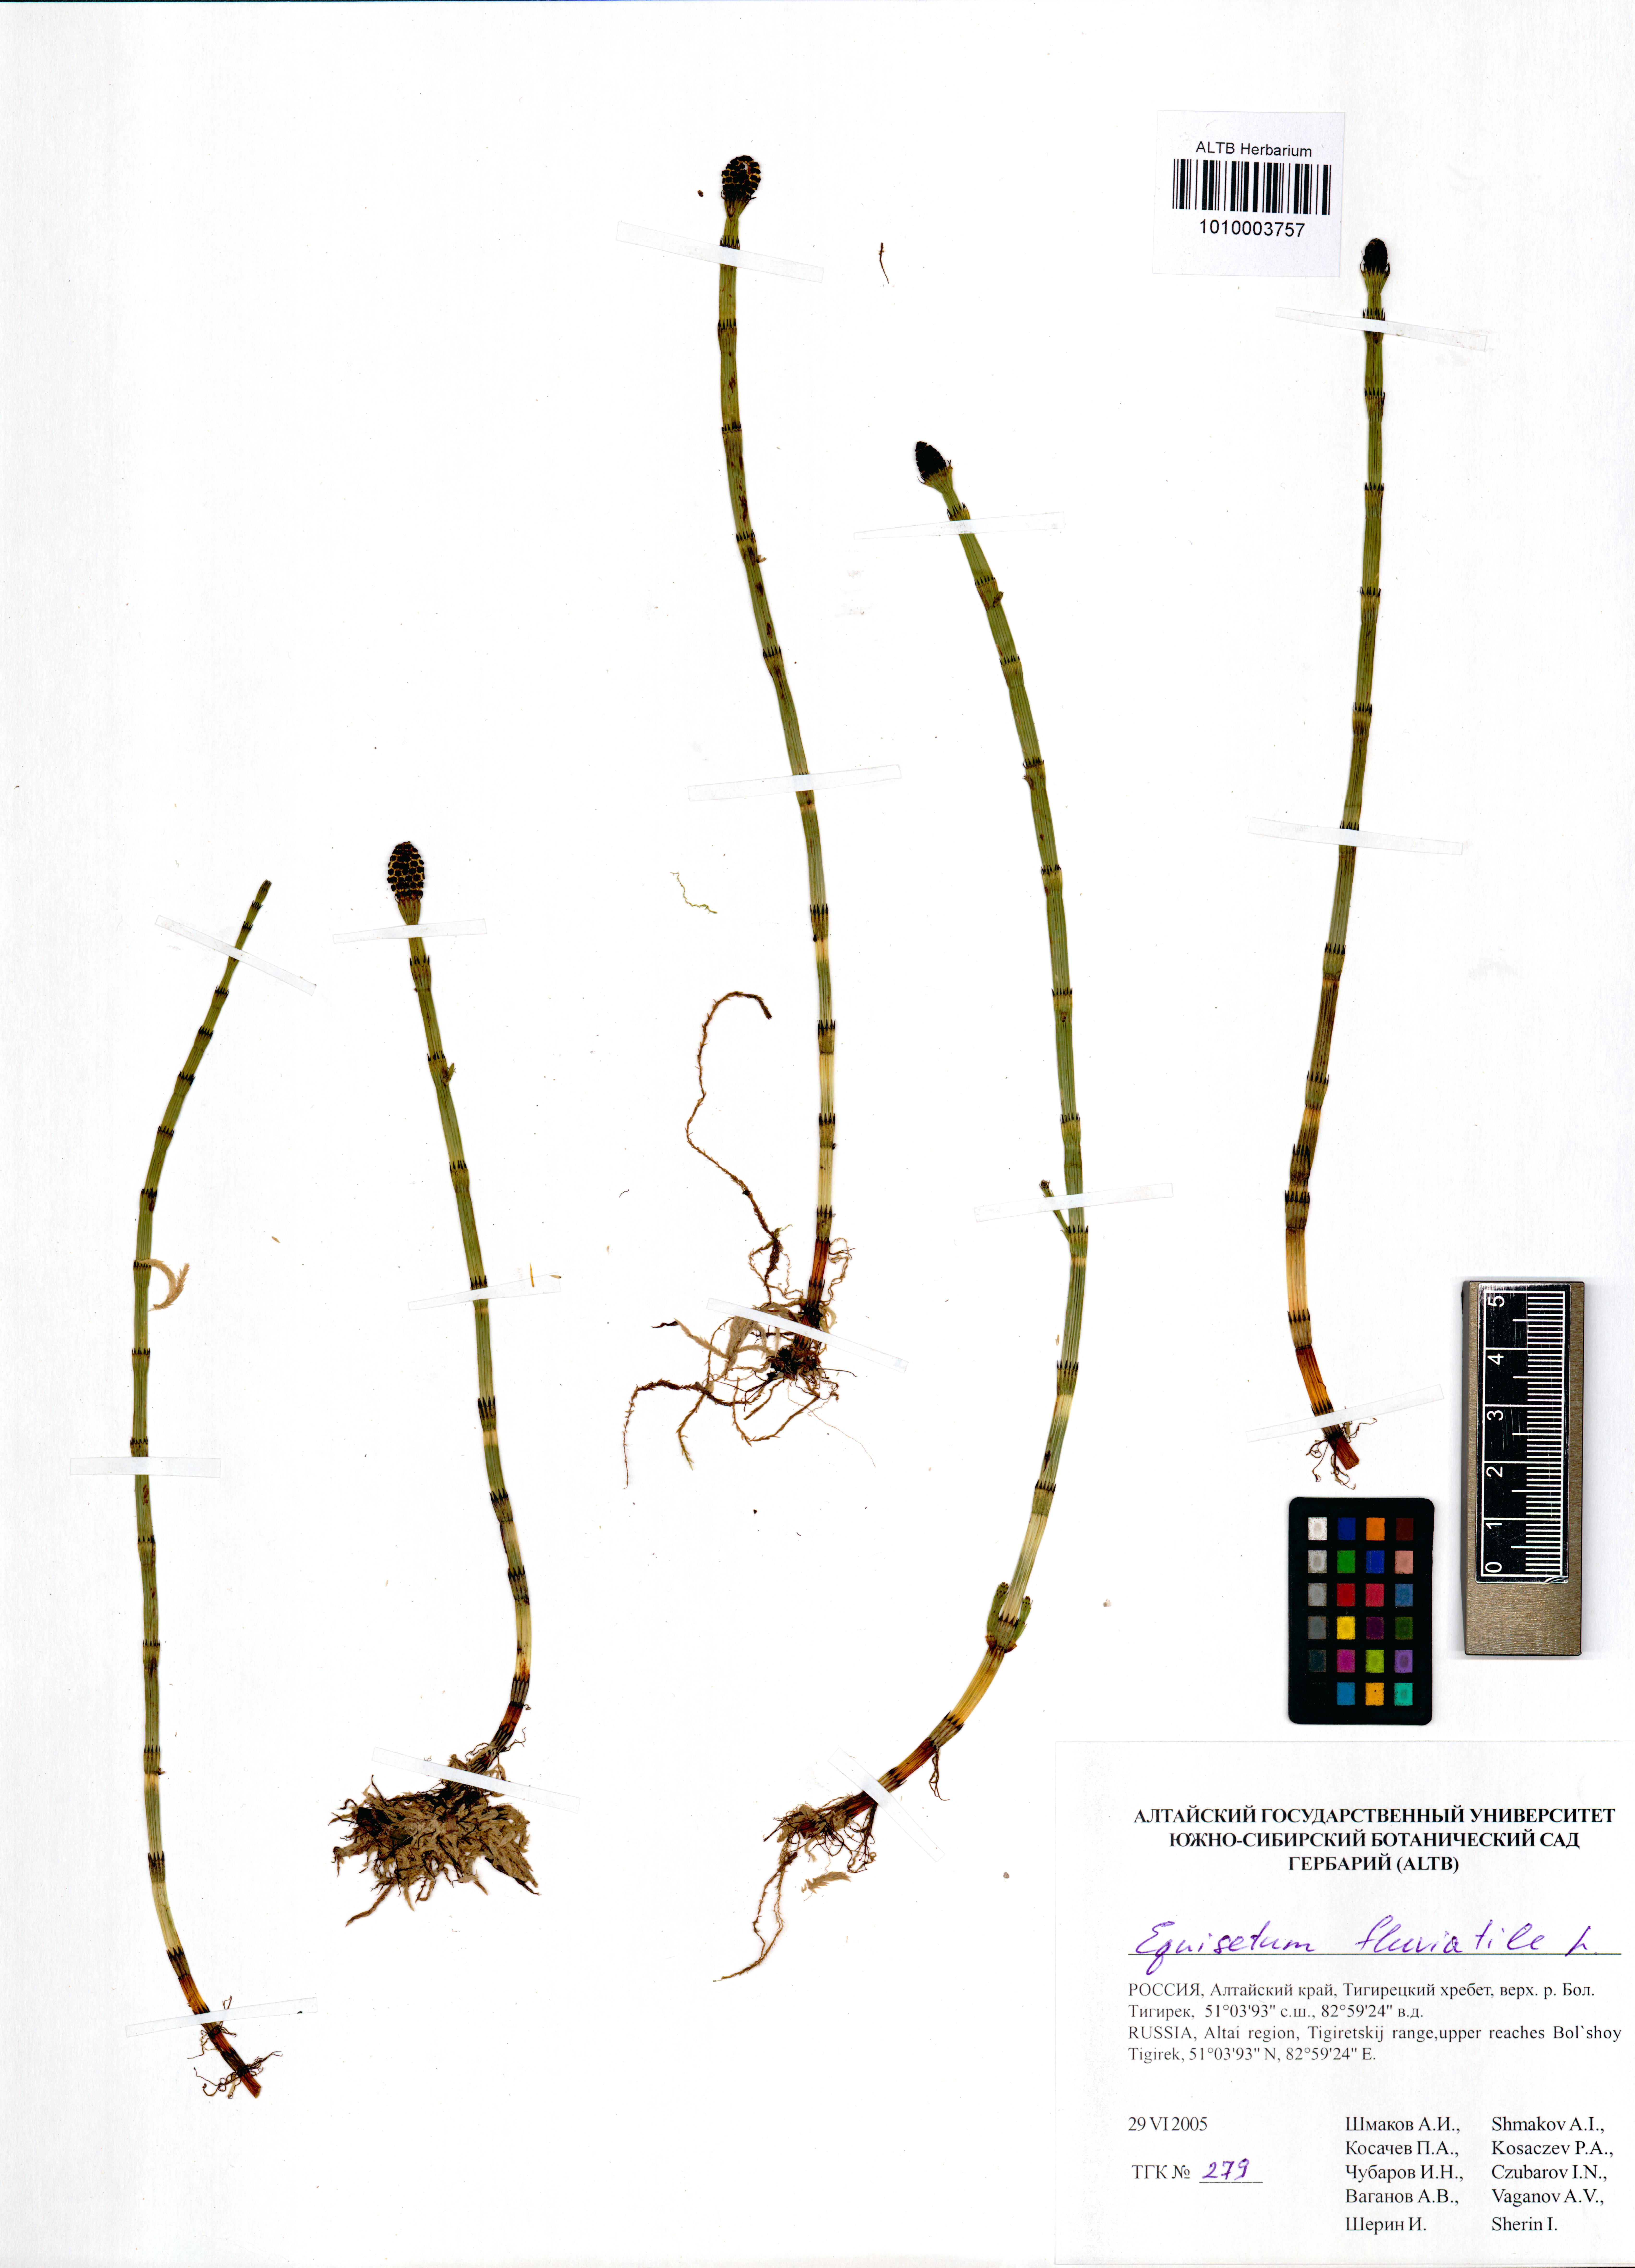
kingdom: Plantae
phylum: Tracheophyta
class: Polypodiopsida
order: Equisetales
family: Equisetaceae
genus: Equisetum
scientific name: Equisetum fluviatile
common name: Water horsetail
